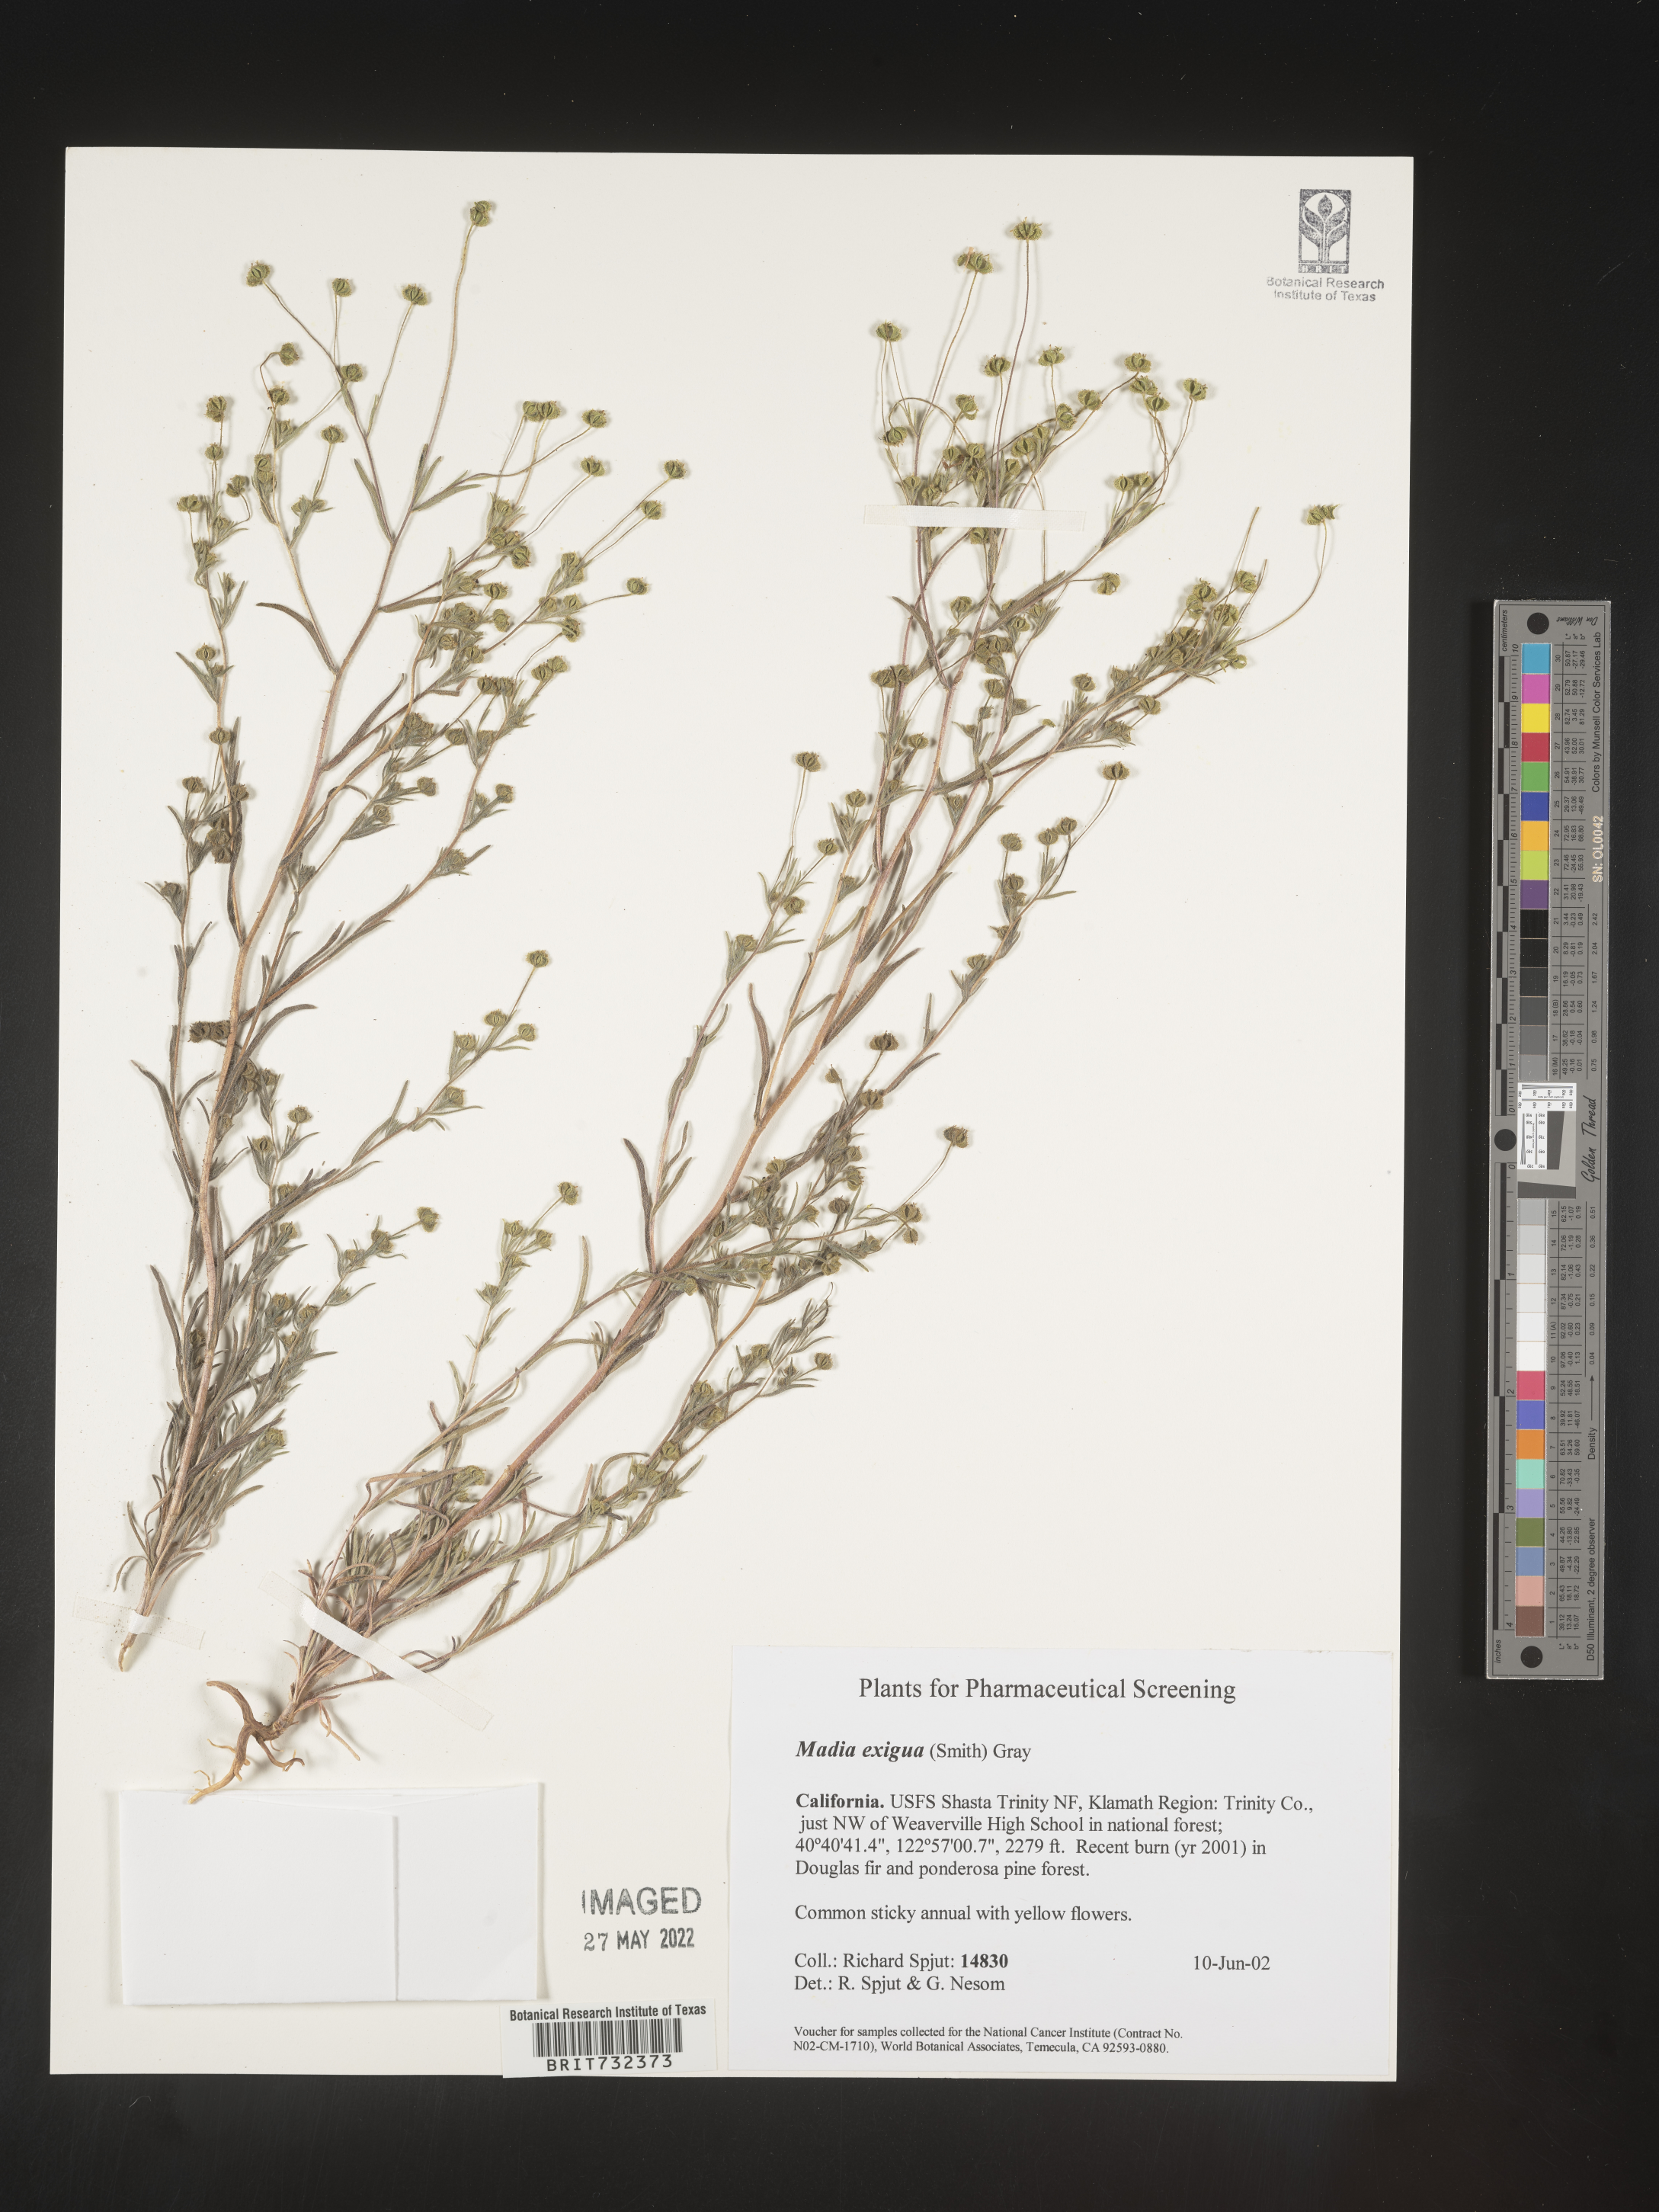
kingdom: Plantae
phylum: Tracheophyta
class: Magnoliopsida
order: Asterales
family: Asteraceae
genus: Madia
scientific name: Madia
